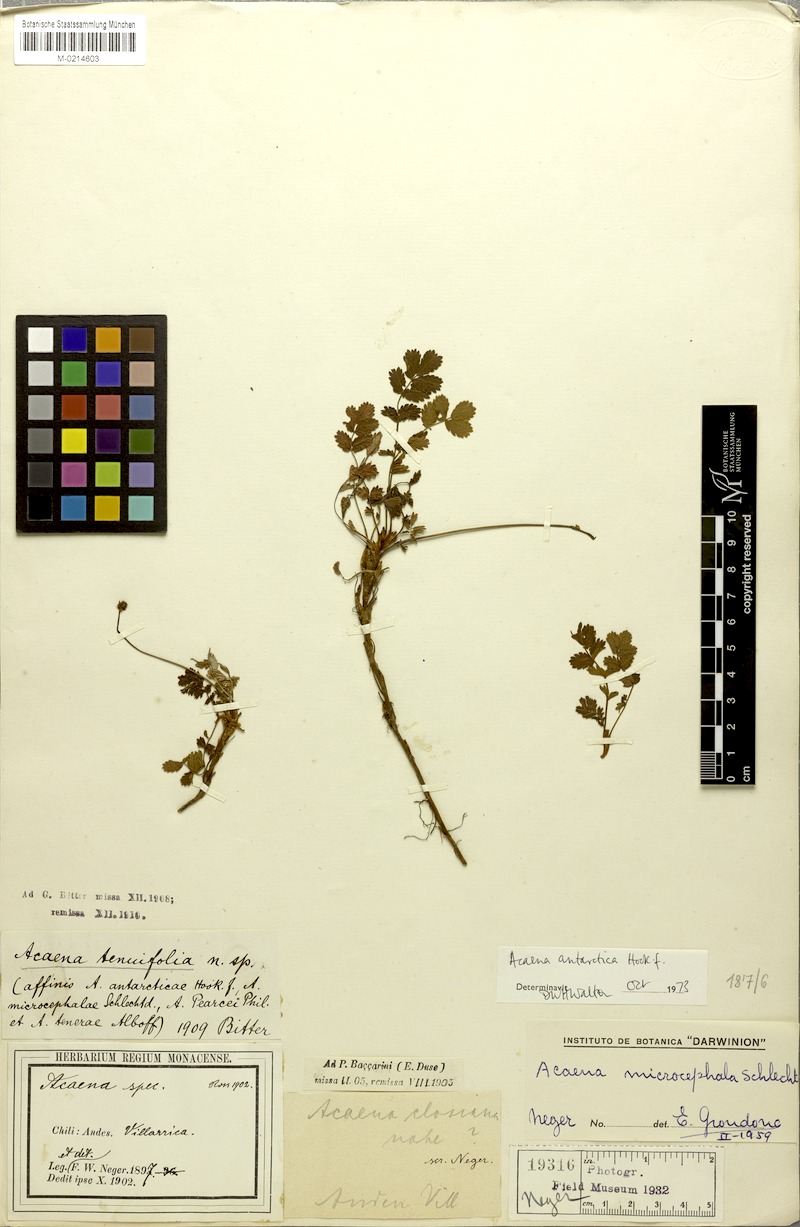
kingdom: Plantae
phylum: Tracheophyta
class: Magnoliopsida
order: Rosales
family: Rosaceae
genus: Acaena
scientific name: Acaena antarctica
